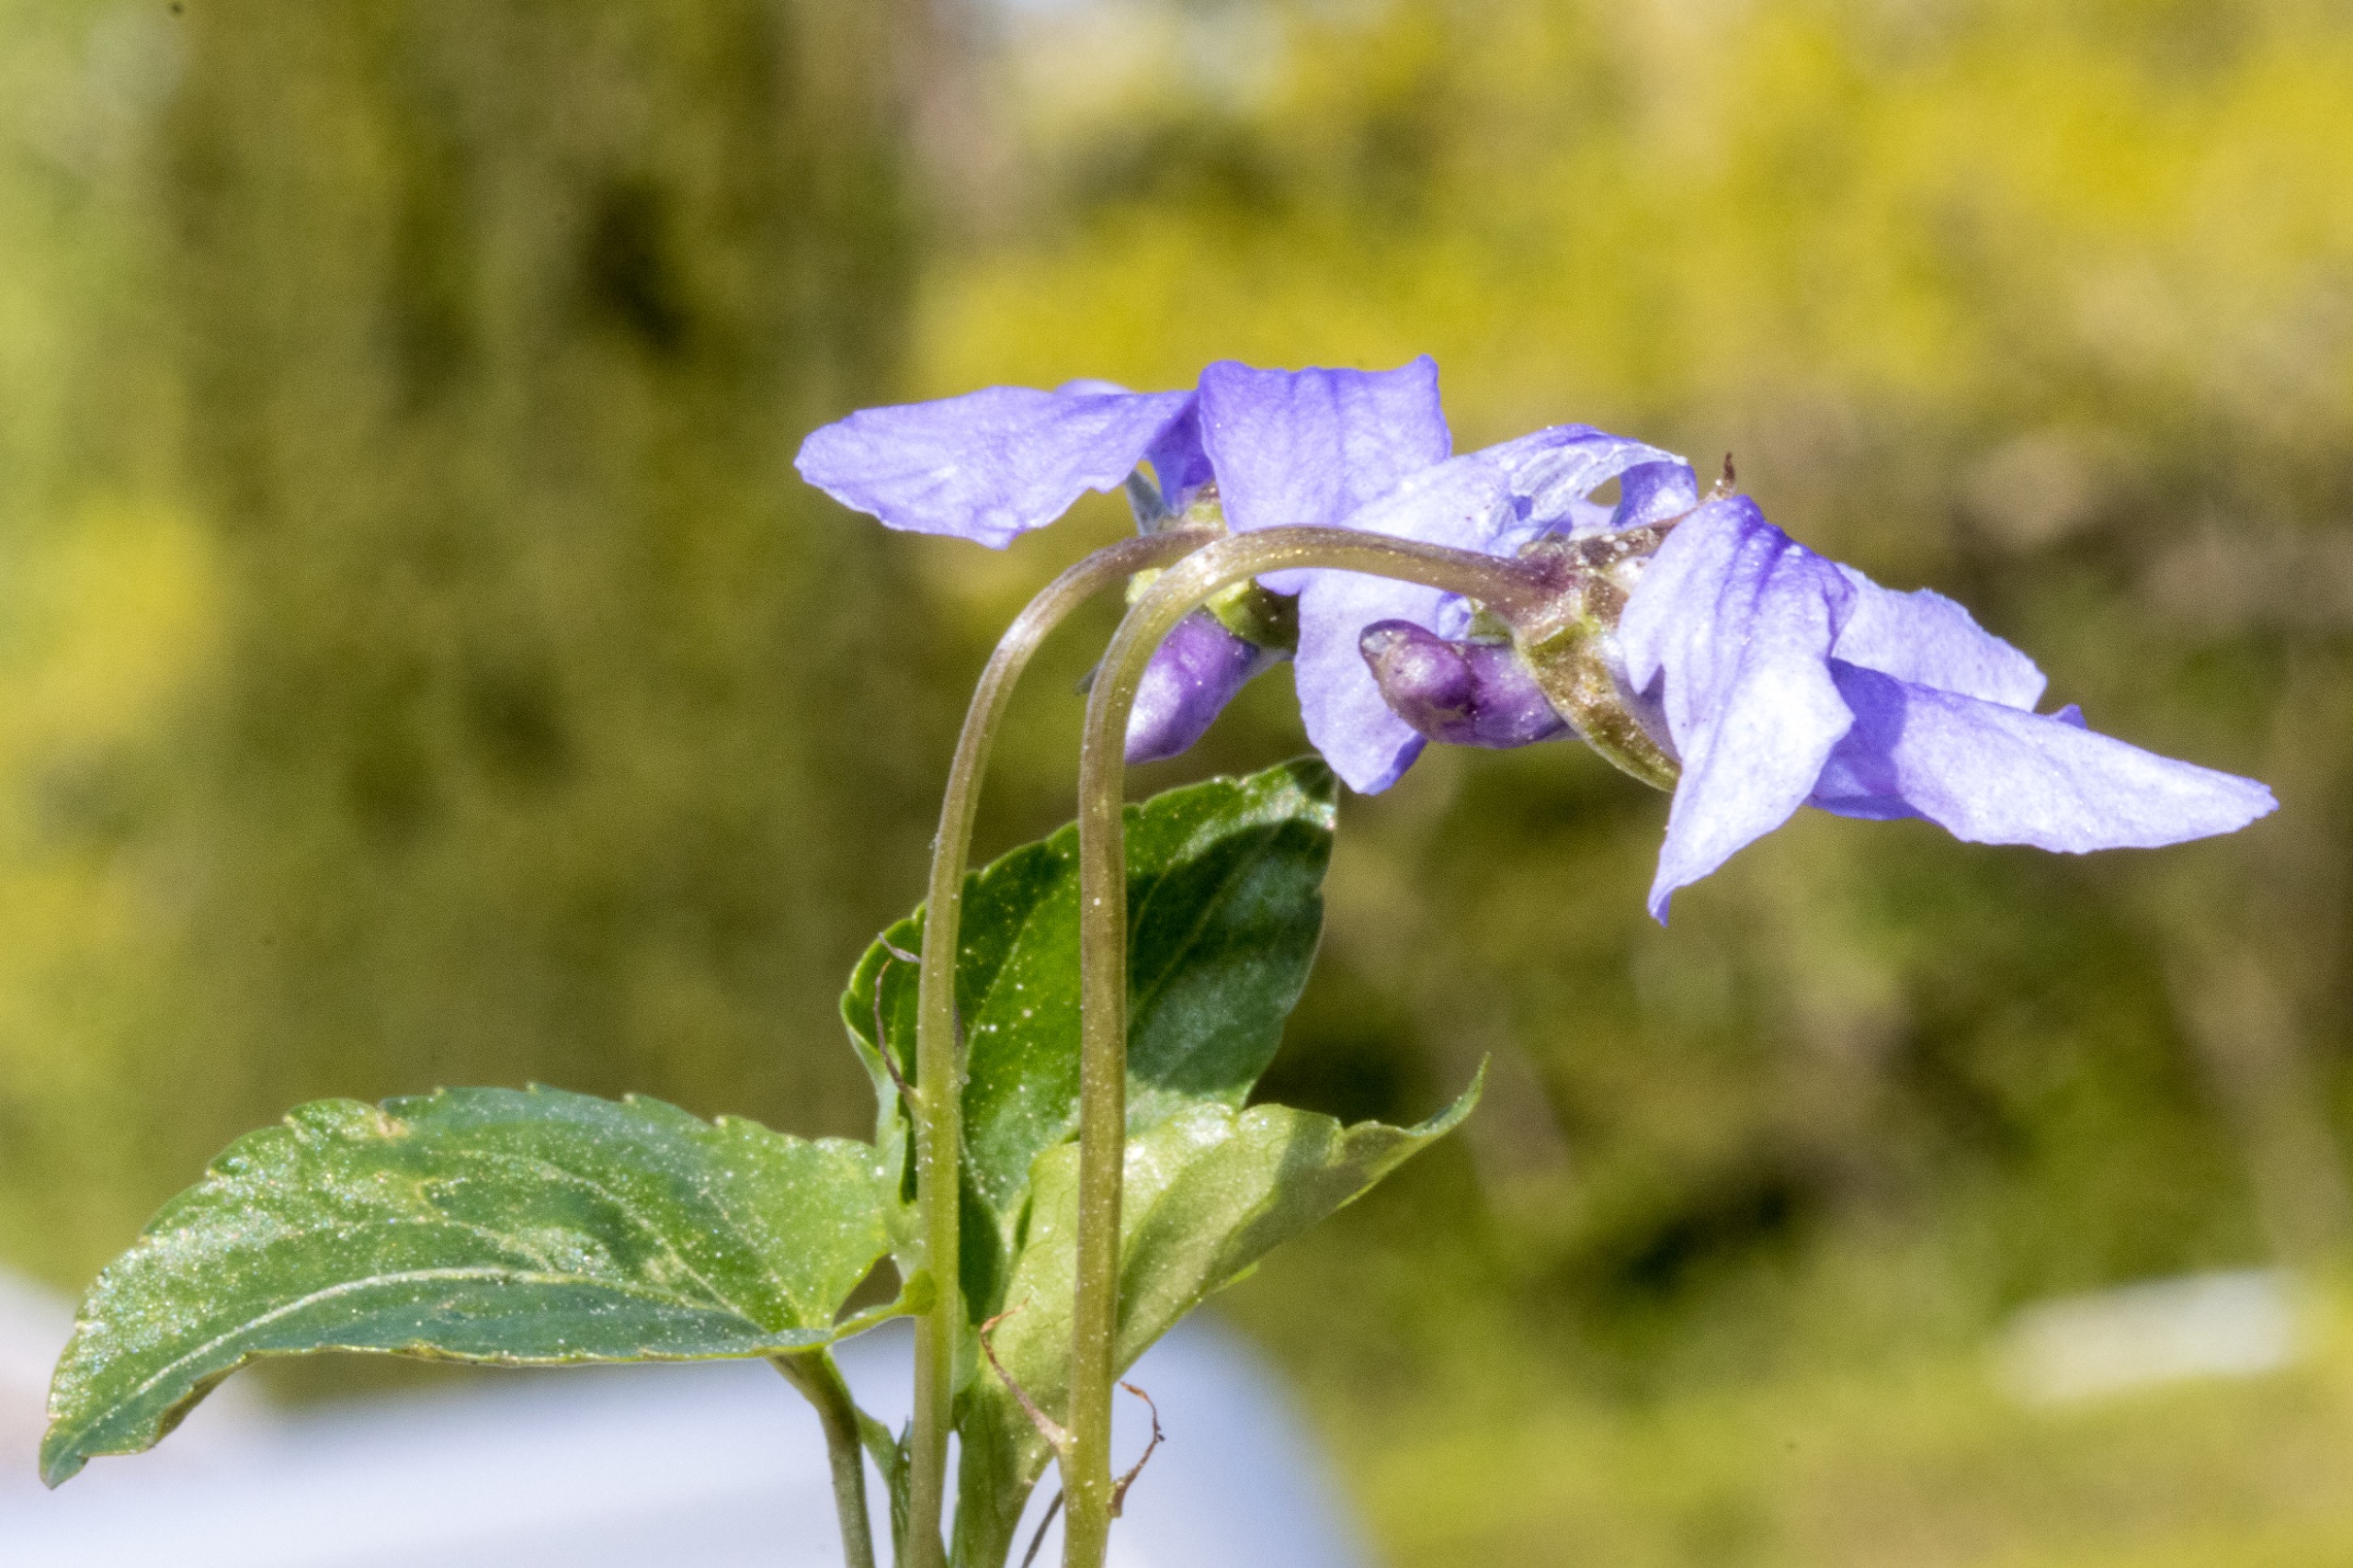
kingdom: Plantae
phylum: Tracheophyta
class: Magnoliopsida
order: Malpighiales
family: Violaceae
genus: Viola
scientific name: Viola reichenbachiana
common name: Skov-viol
